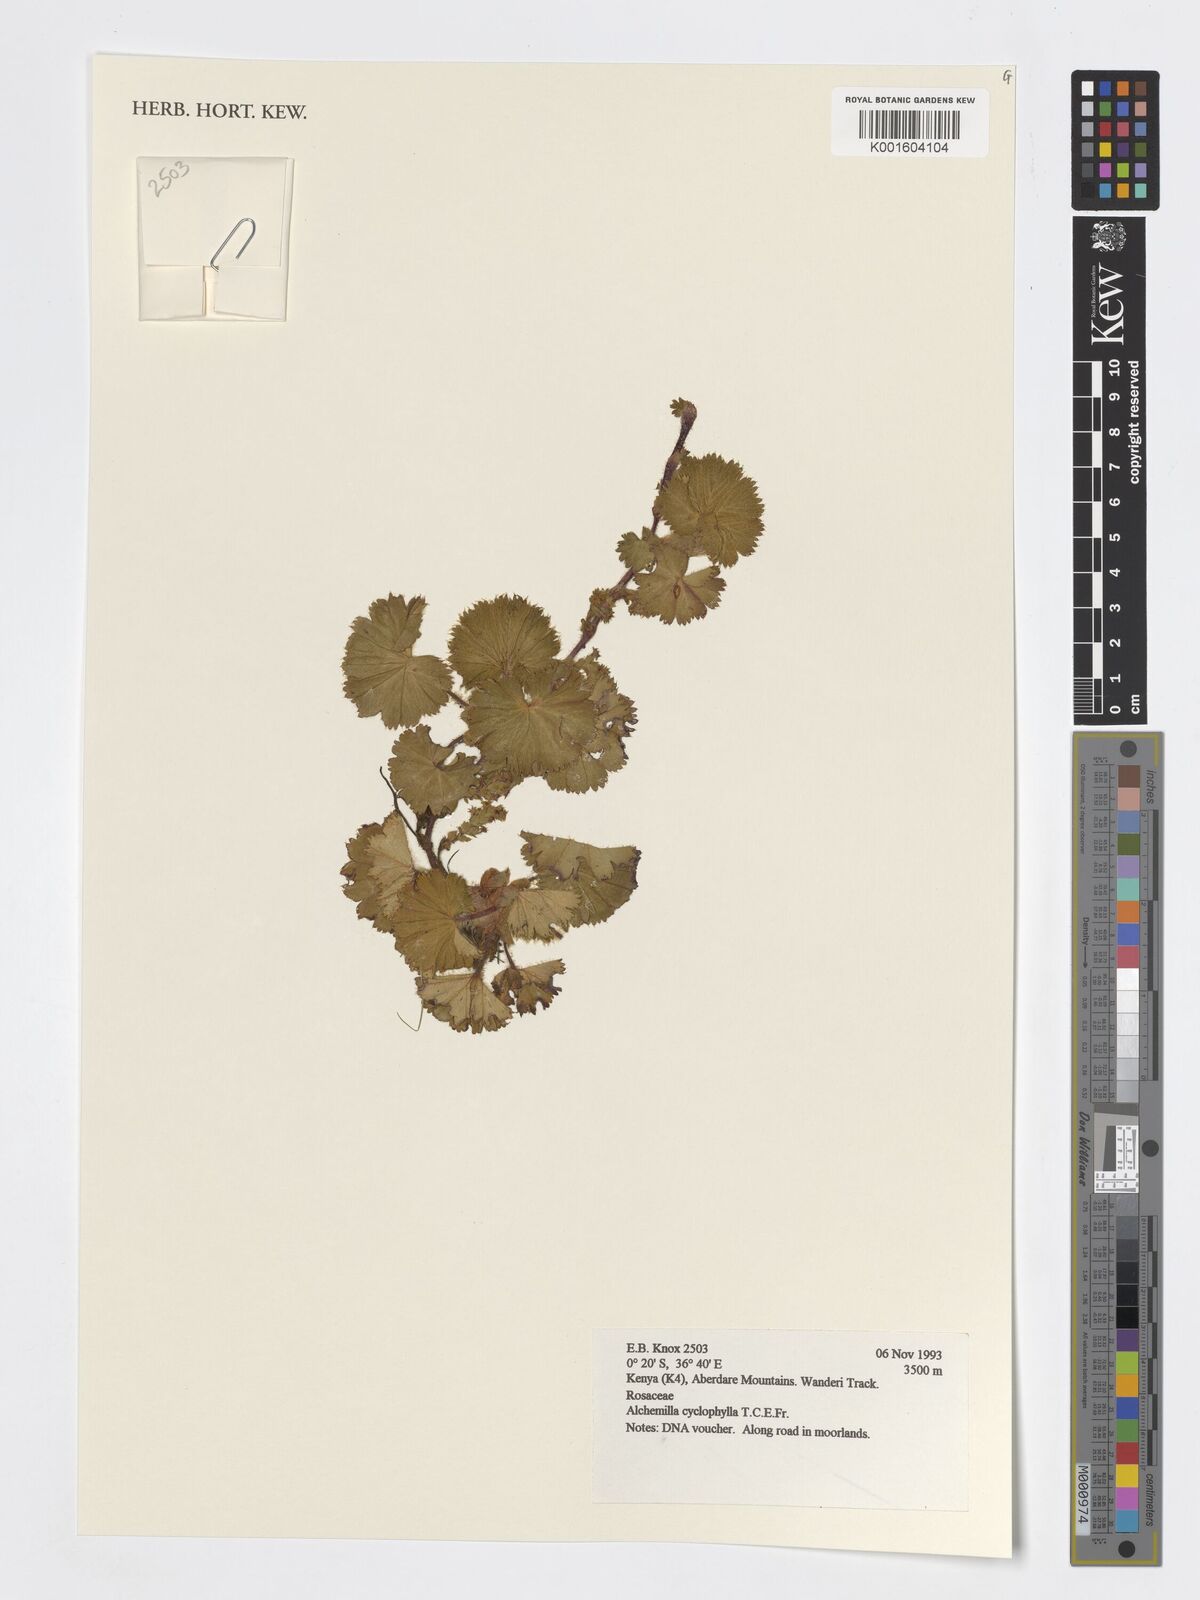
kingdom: Plantae
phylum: Tracheophyta
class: Magnoliopsida
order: Rosales
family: Rosaceae
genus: Alchemilla
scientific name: Alchemilla abyssinica
